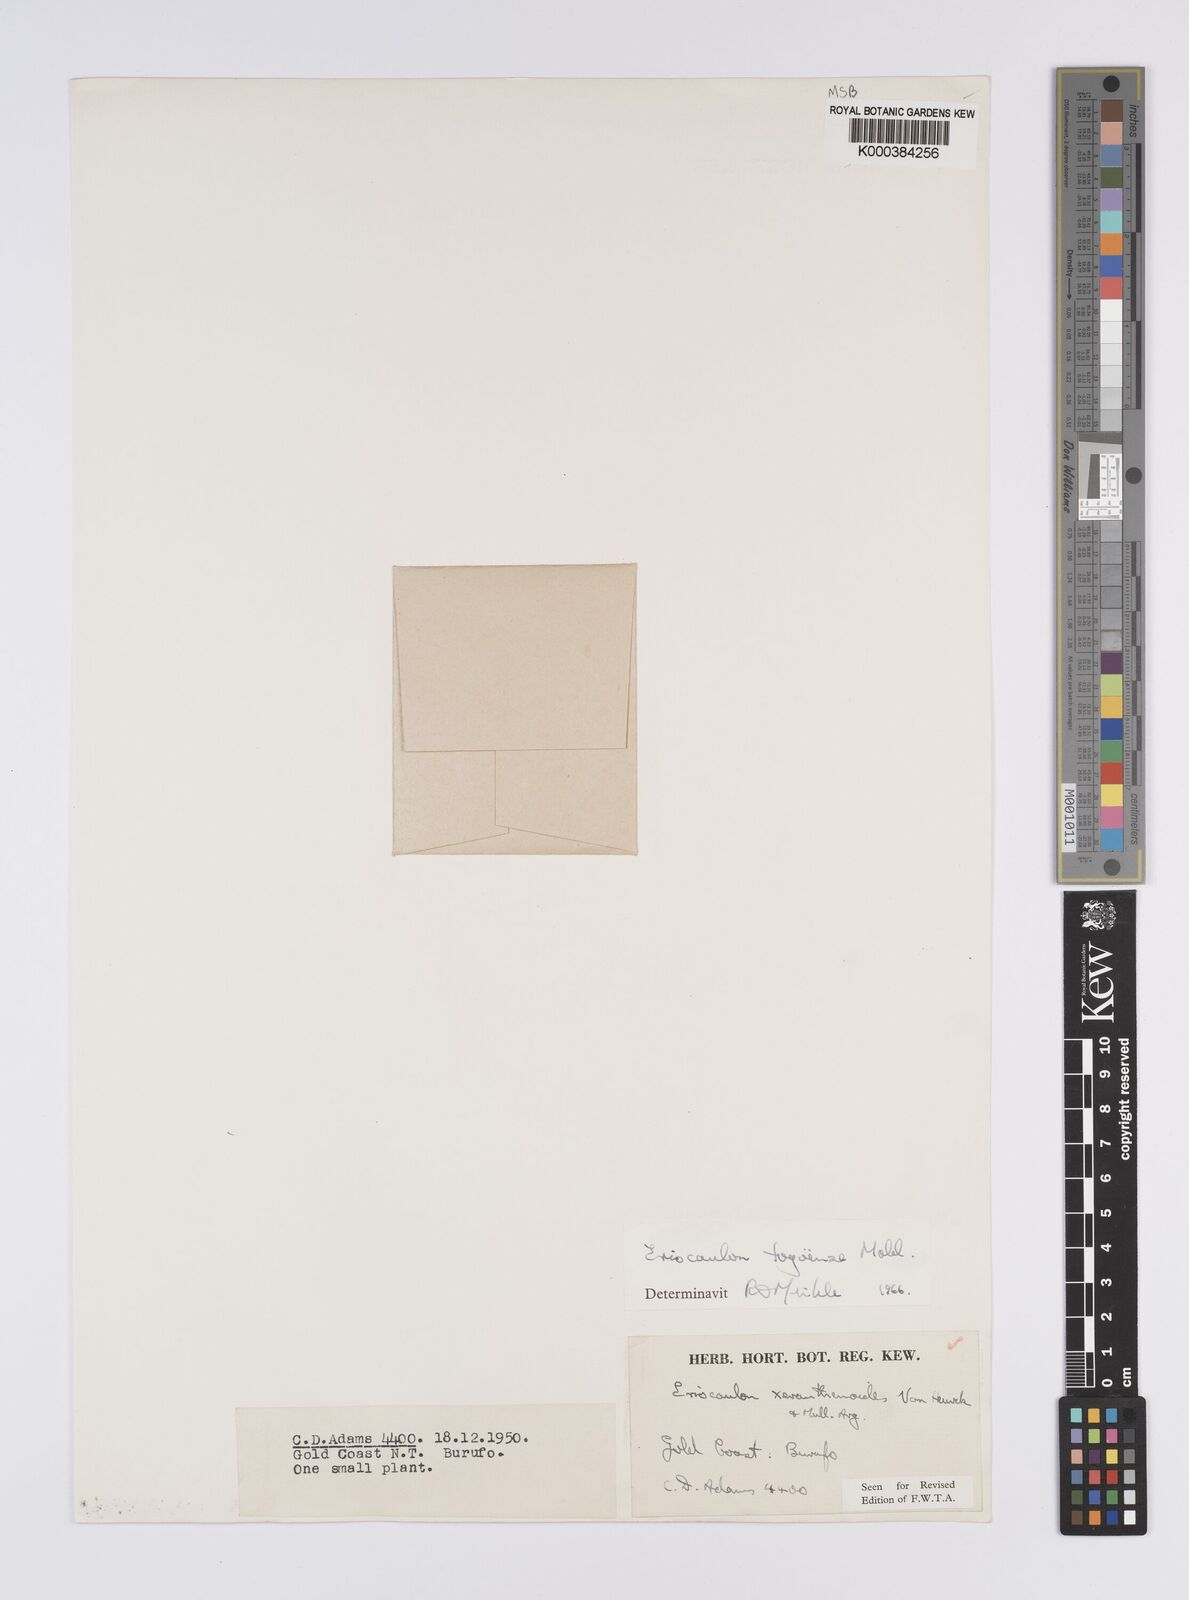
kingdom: Plantae
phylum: Tracheophyta
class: Liliopsida
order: Poales
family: Eriocaulaceae
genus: Eriocaulon
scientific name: Eriocaulon togoense
